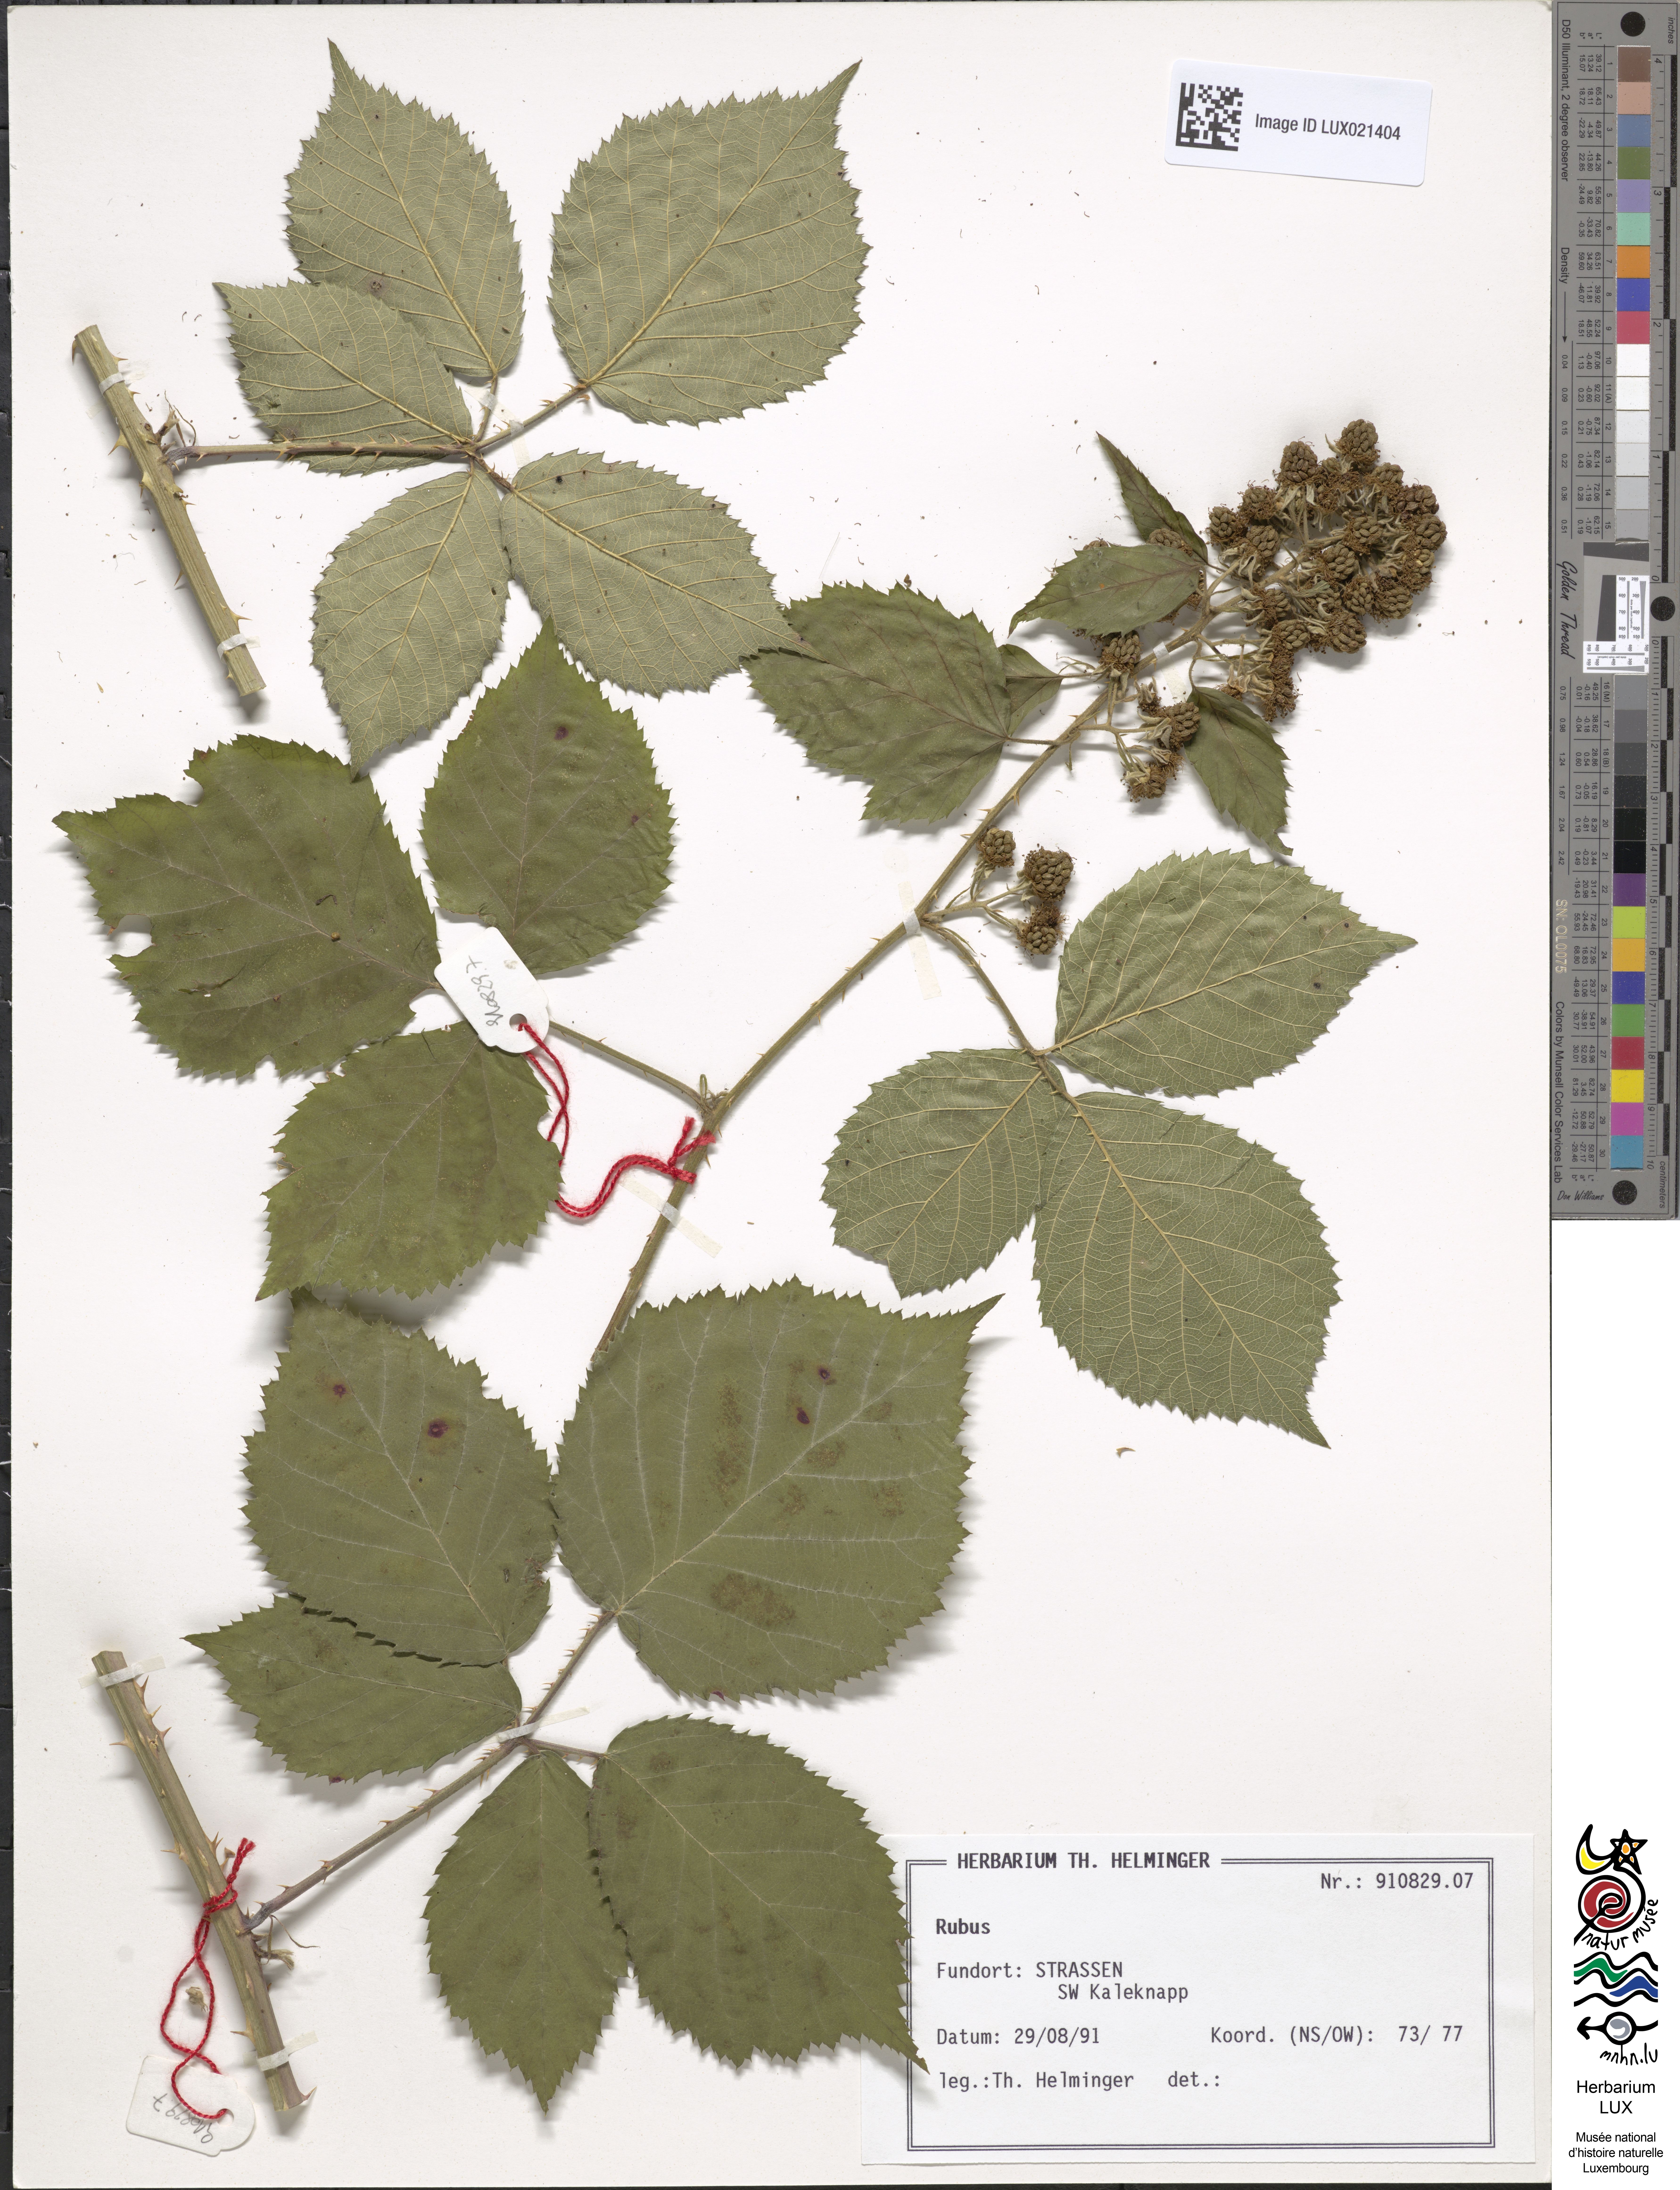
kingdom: Plantae
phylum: Tracheophyta
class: Magnoliopsida
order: Rosales
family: Rosaceae
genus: Rubus
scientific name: Rubus
